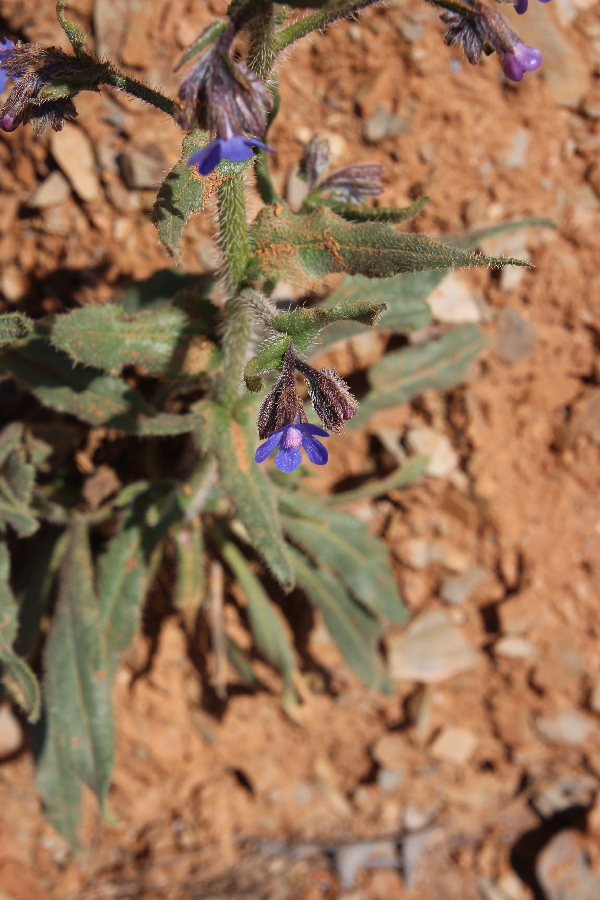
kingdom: Plantae
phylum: Tracheophyta
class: Magnoliopsida
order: Boraginales
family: Boraginaceae
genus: Anchusa
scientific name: Anchusa azurea
